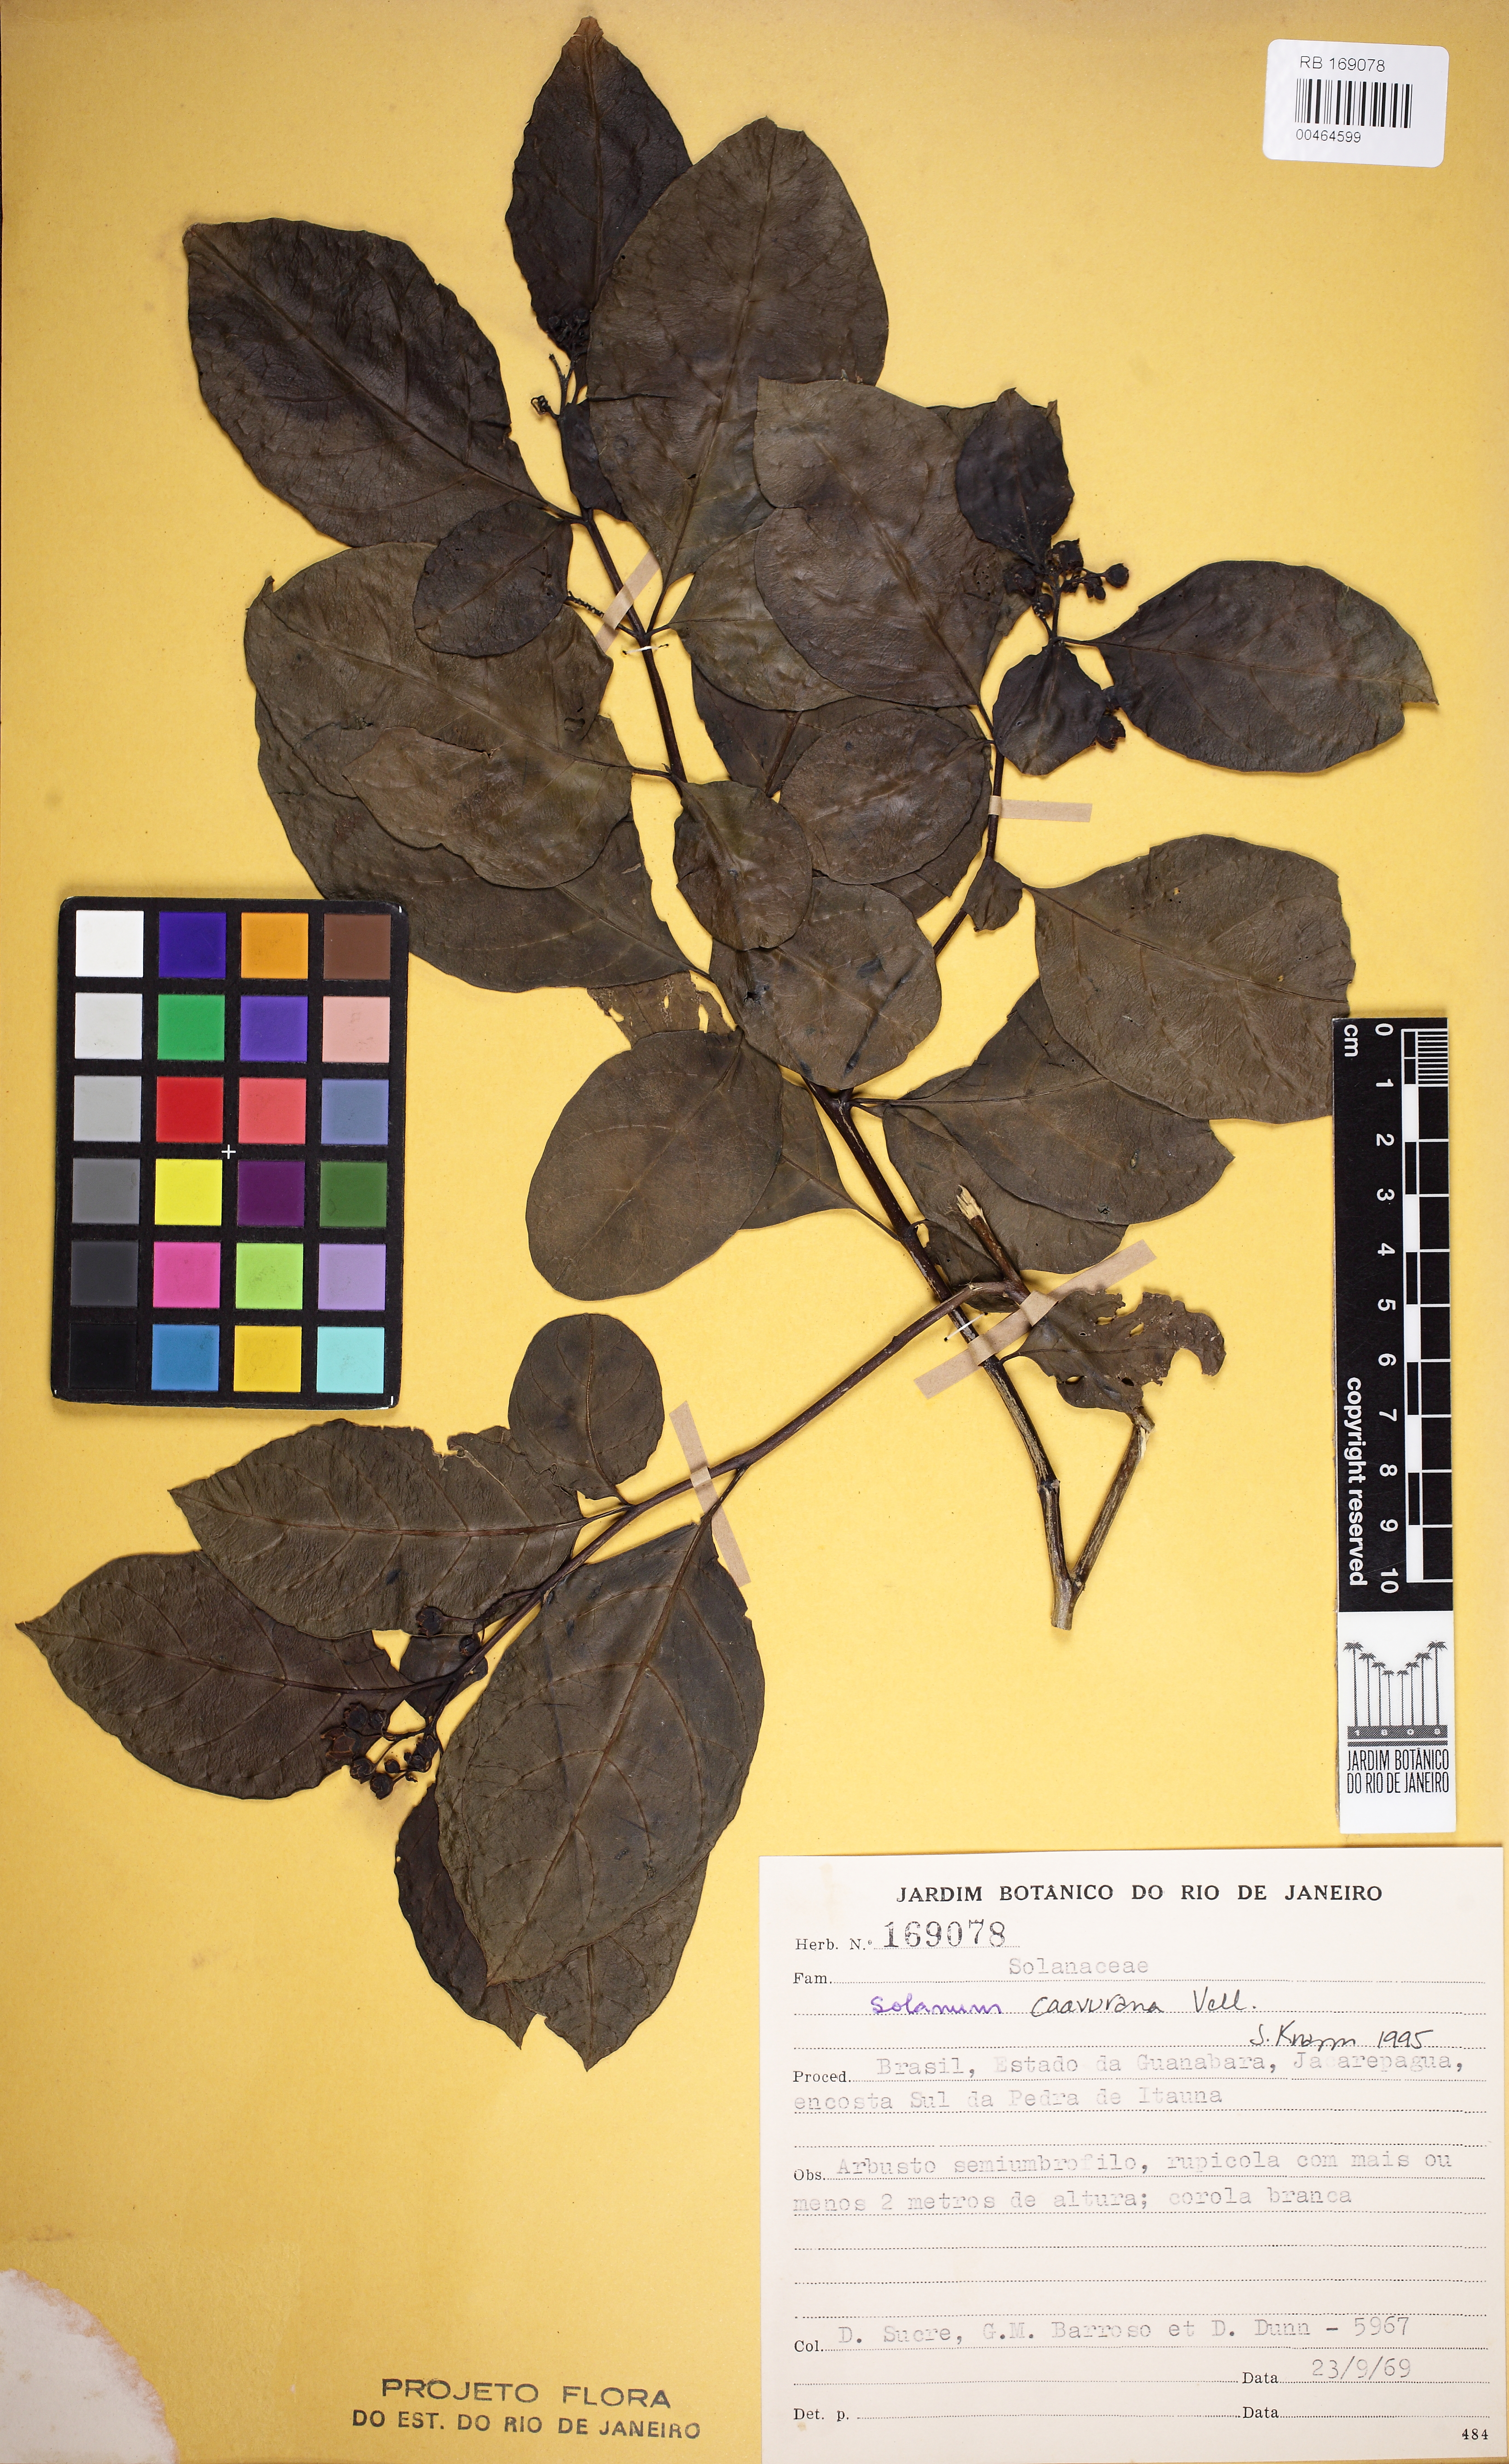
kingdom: Plantae
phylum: Tracheophyta
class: Magnoliopsida
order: Solanales
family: Solanaceae
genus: Solanum
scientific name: Solanum caavurana
